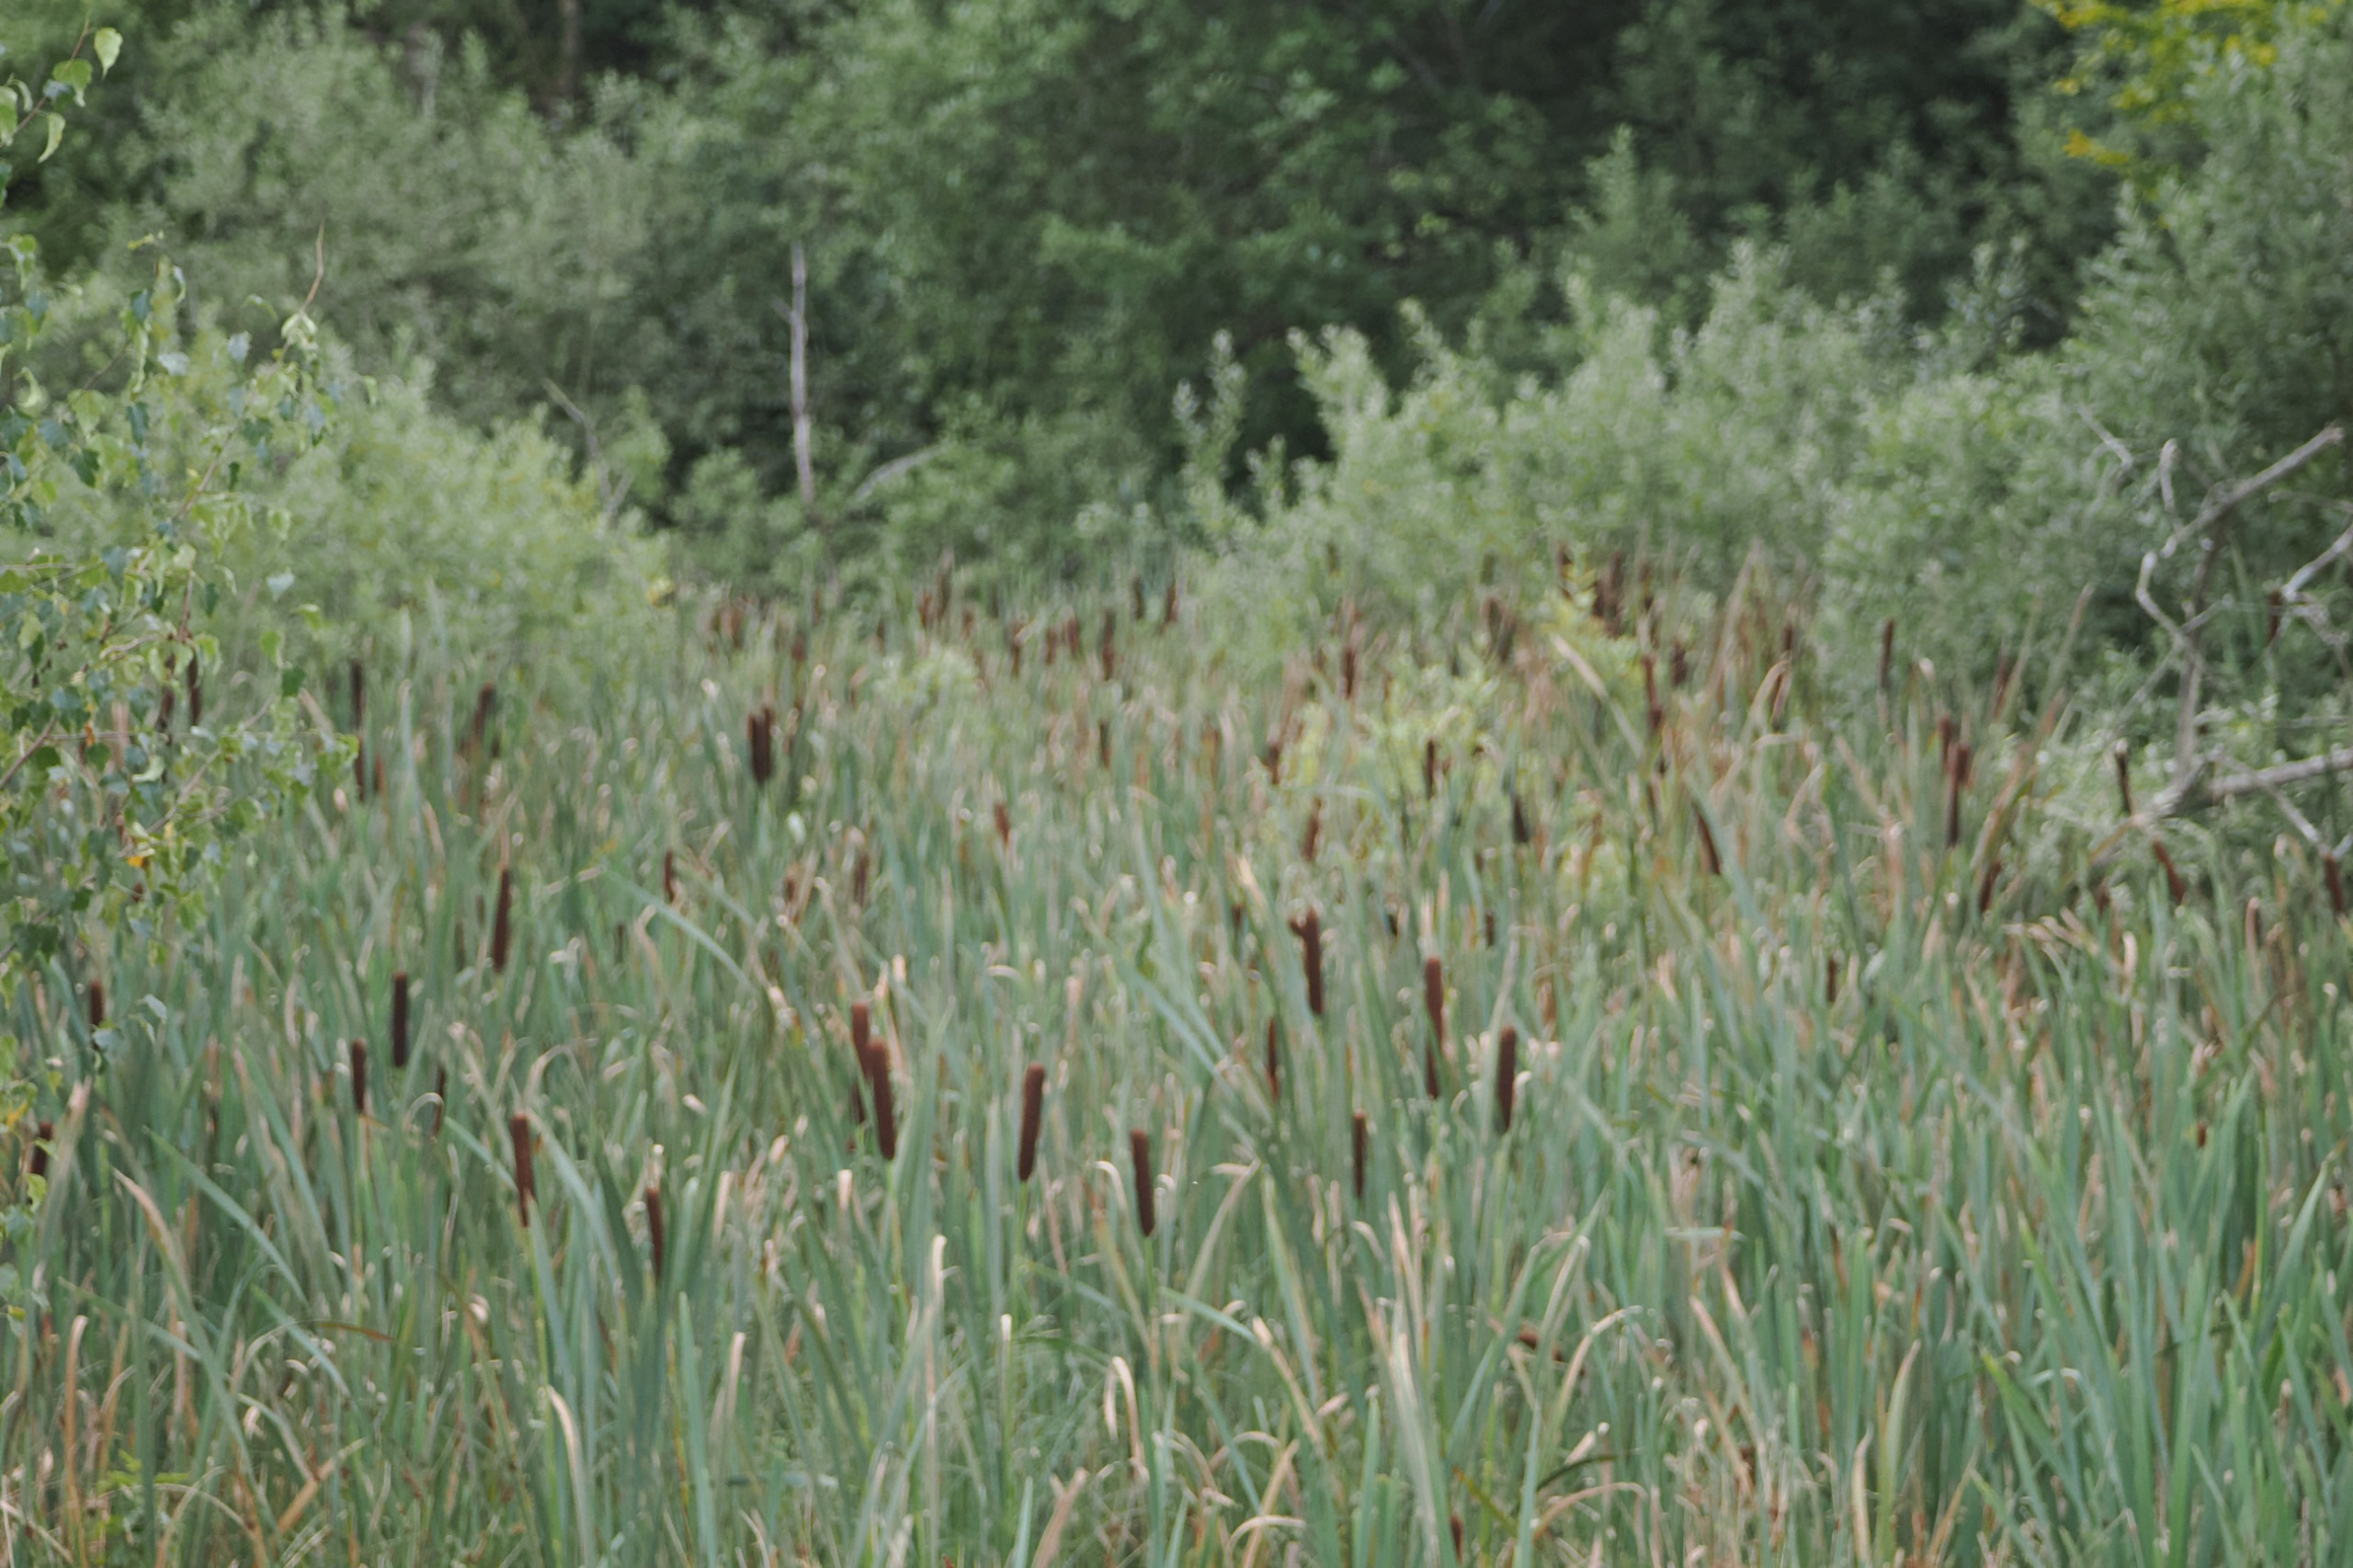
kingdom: Plantae
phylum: Tracheophyta
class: Liliopsida
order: Poales
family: Typhaceae
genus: Typha
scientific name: Typha latifolia
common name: Bredbladet dunhammer
